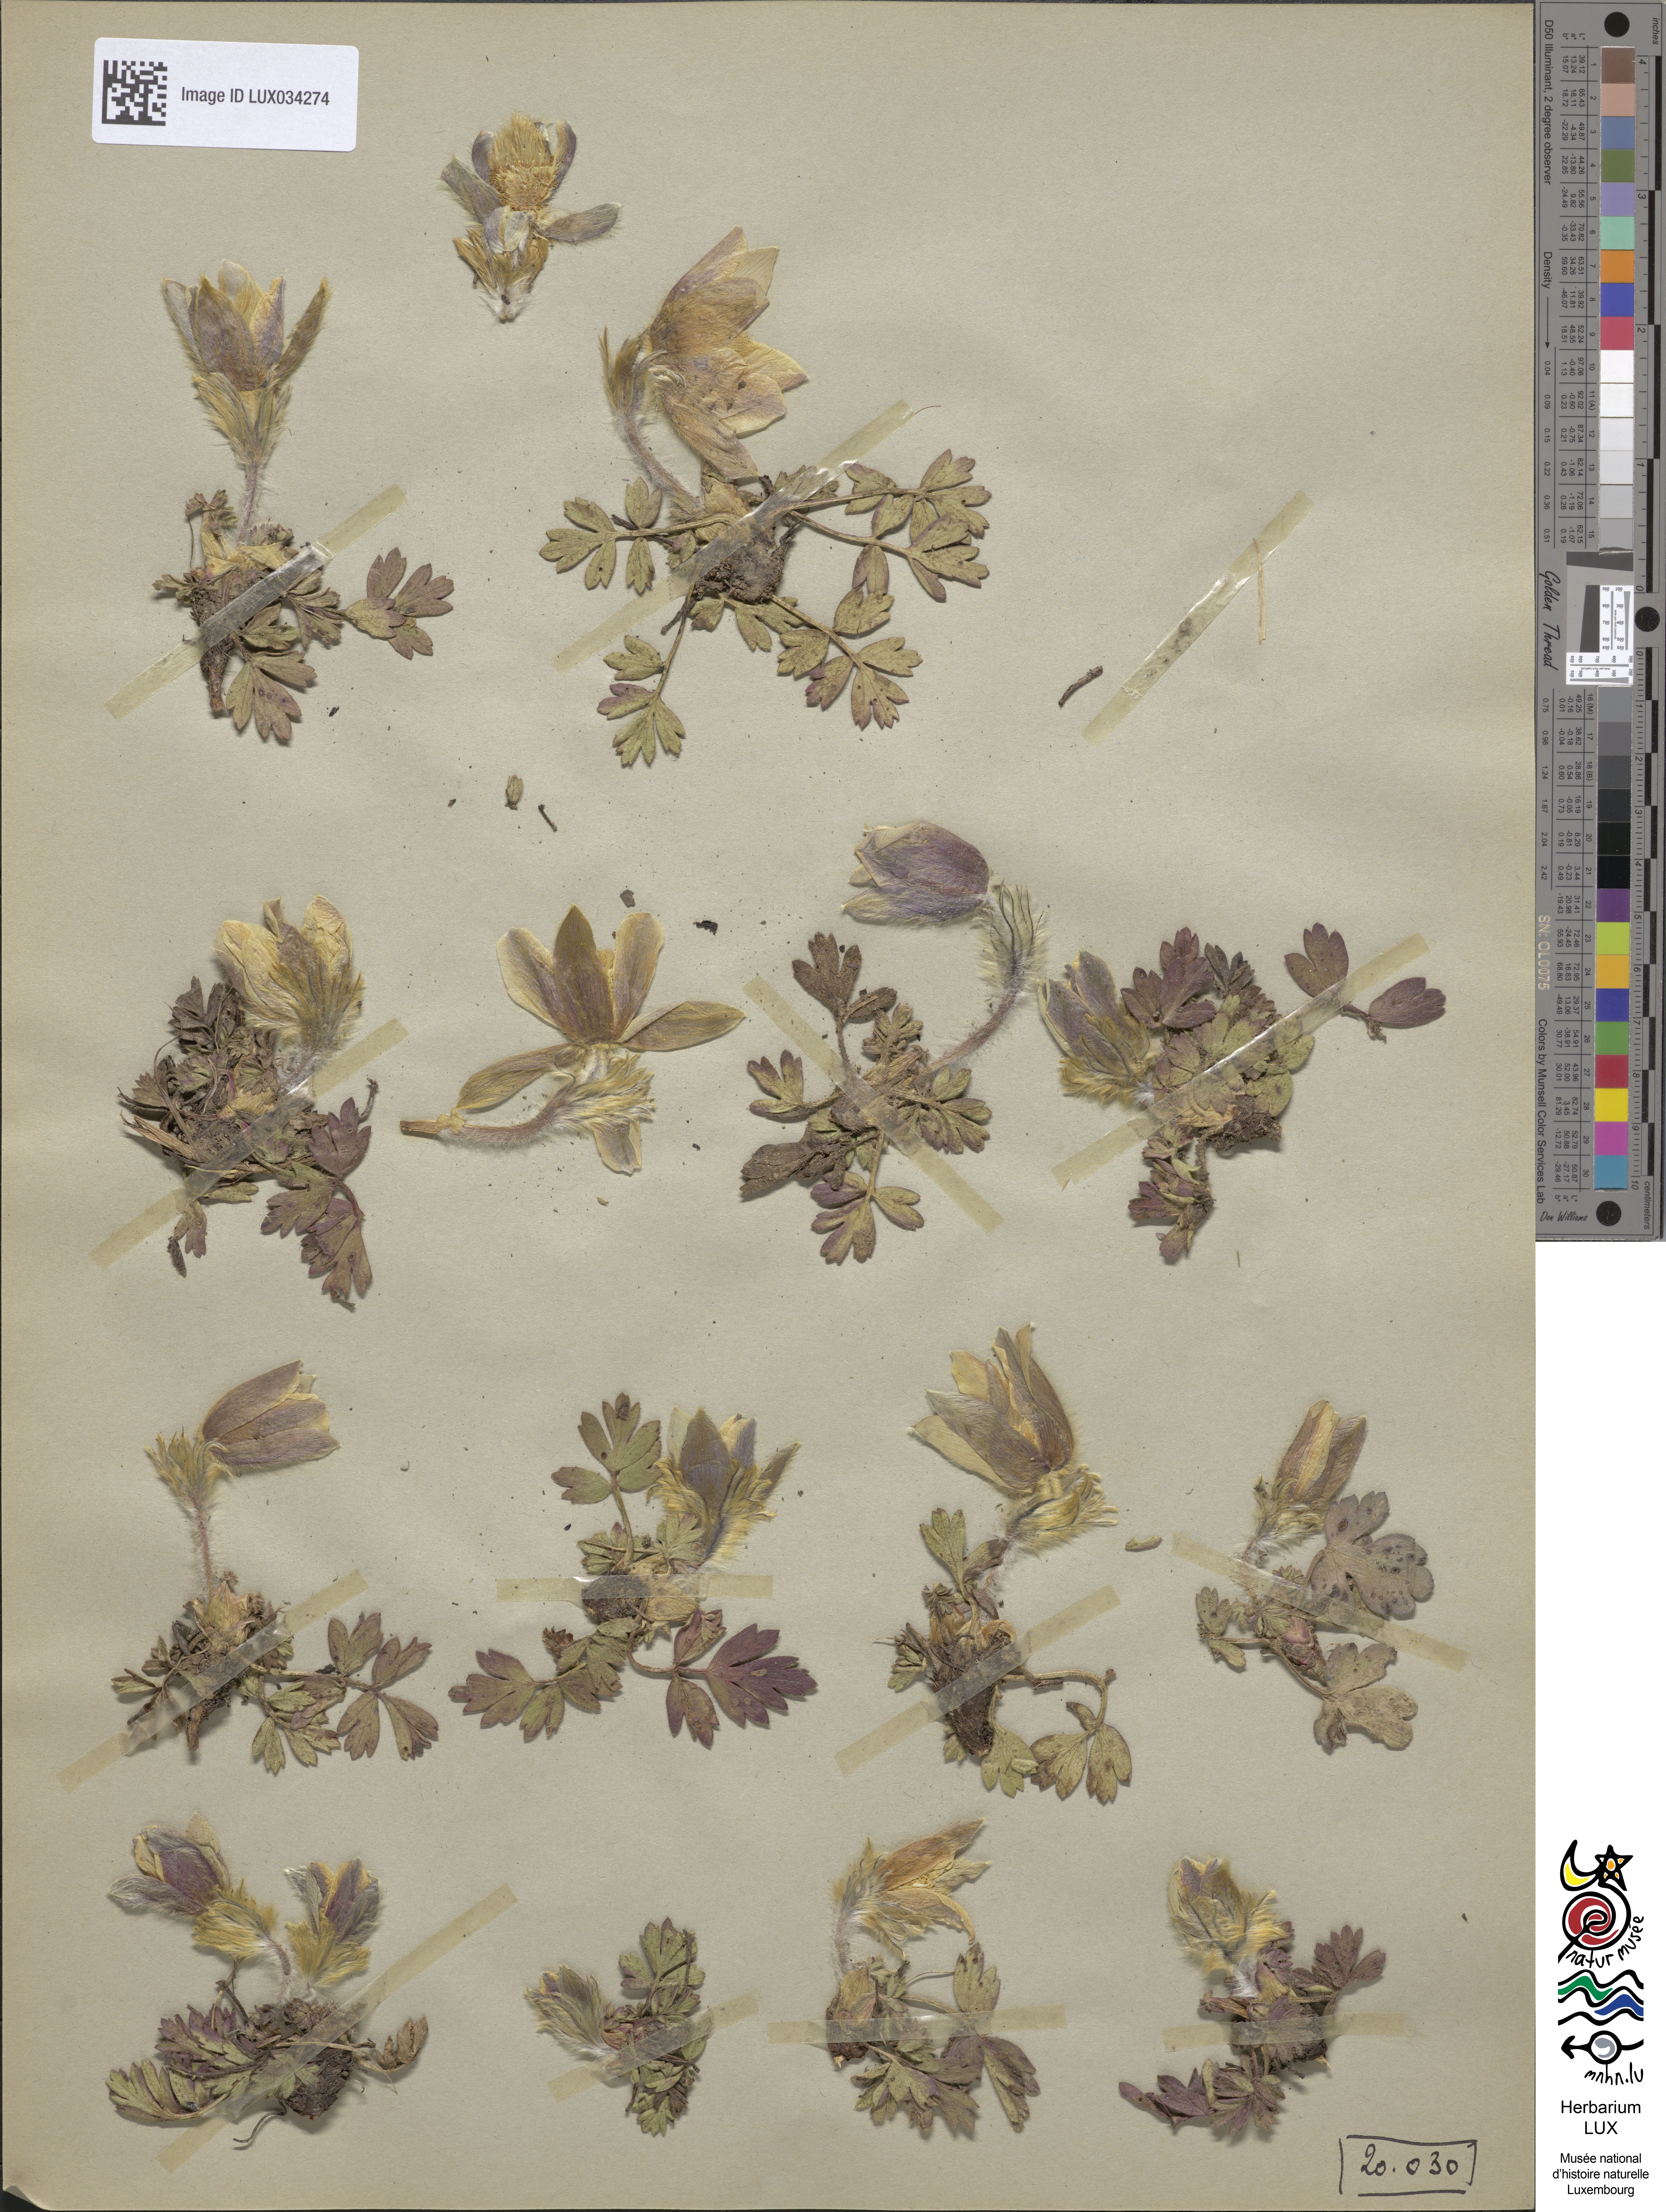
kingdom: Plantae
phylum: Tracheophyta
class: Magnoliopsida
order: Ranunculales
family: Ranunculaceae
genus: Pulsatilla
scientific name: Pulsatilla vernalis
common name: Spring pasque flower
